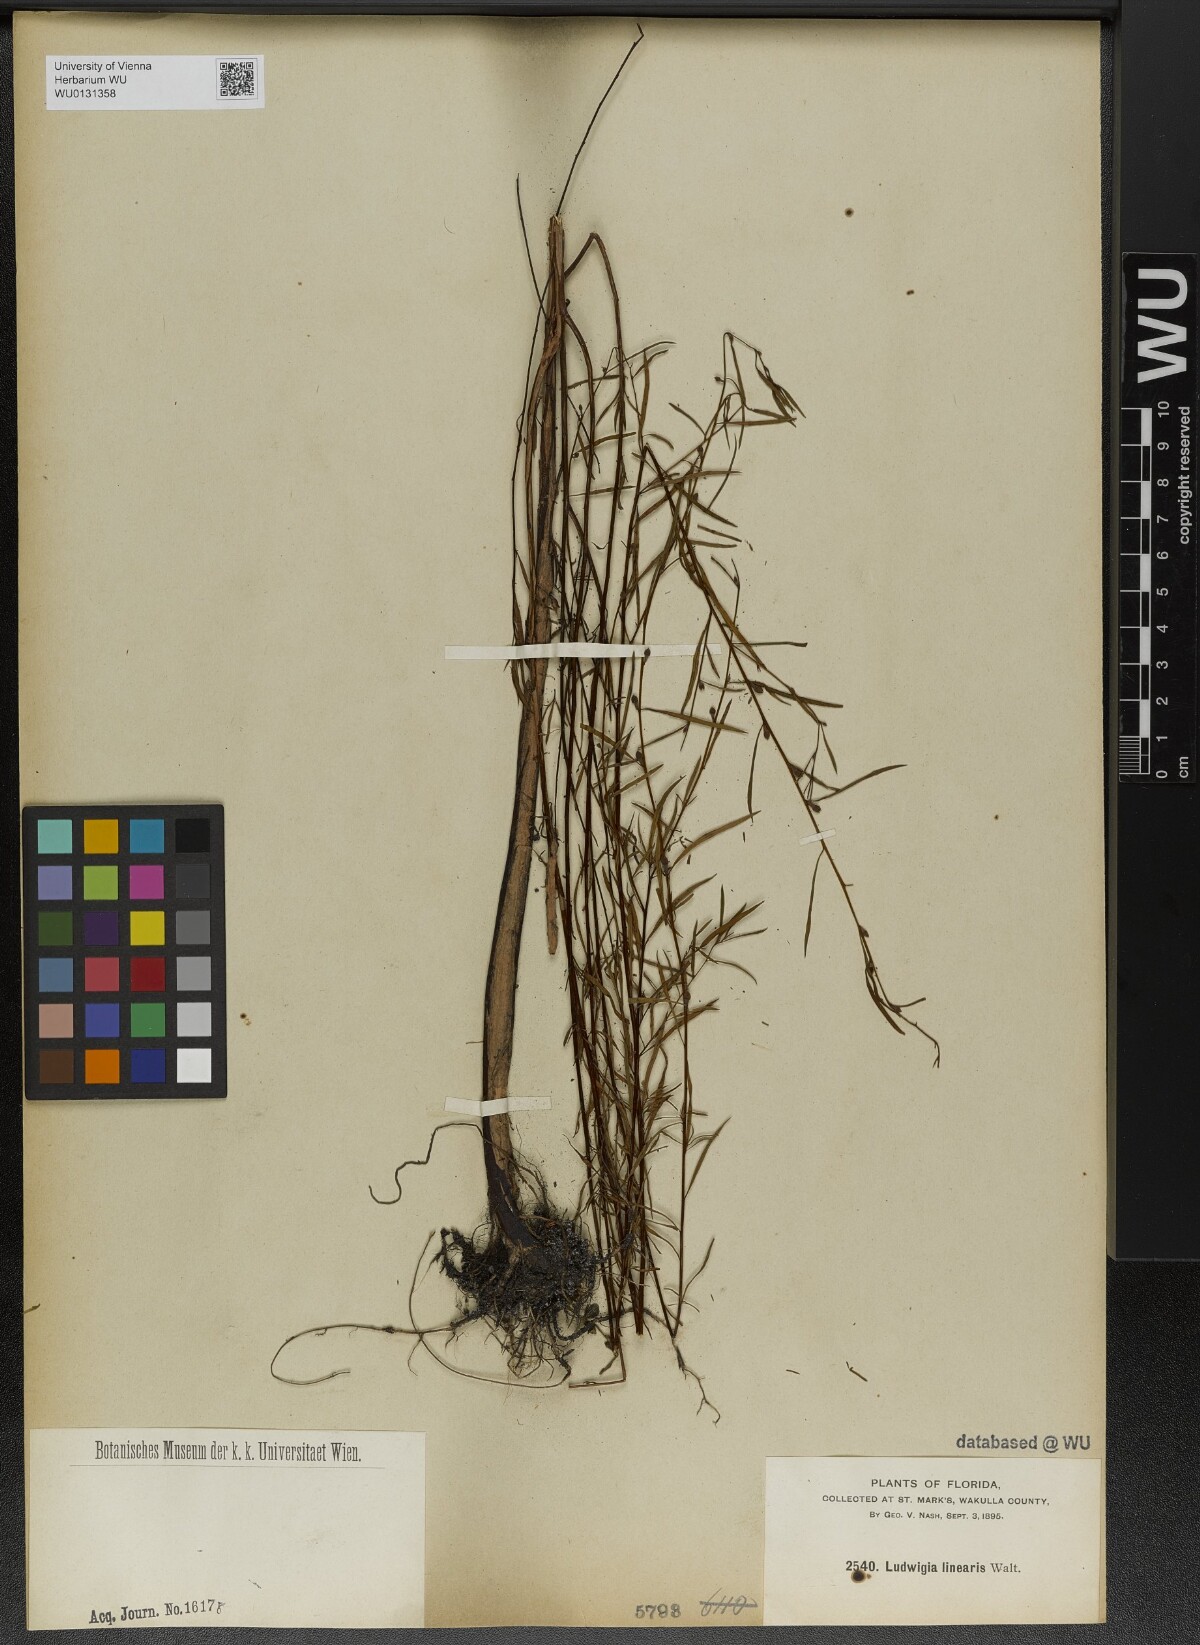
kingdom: Plantae
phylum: Tracheophyta
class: Magnoliopsida
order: Myrtales
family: Onagraceae
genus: Ludwigia
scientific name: Ludwigia linearis
